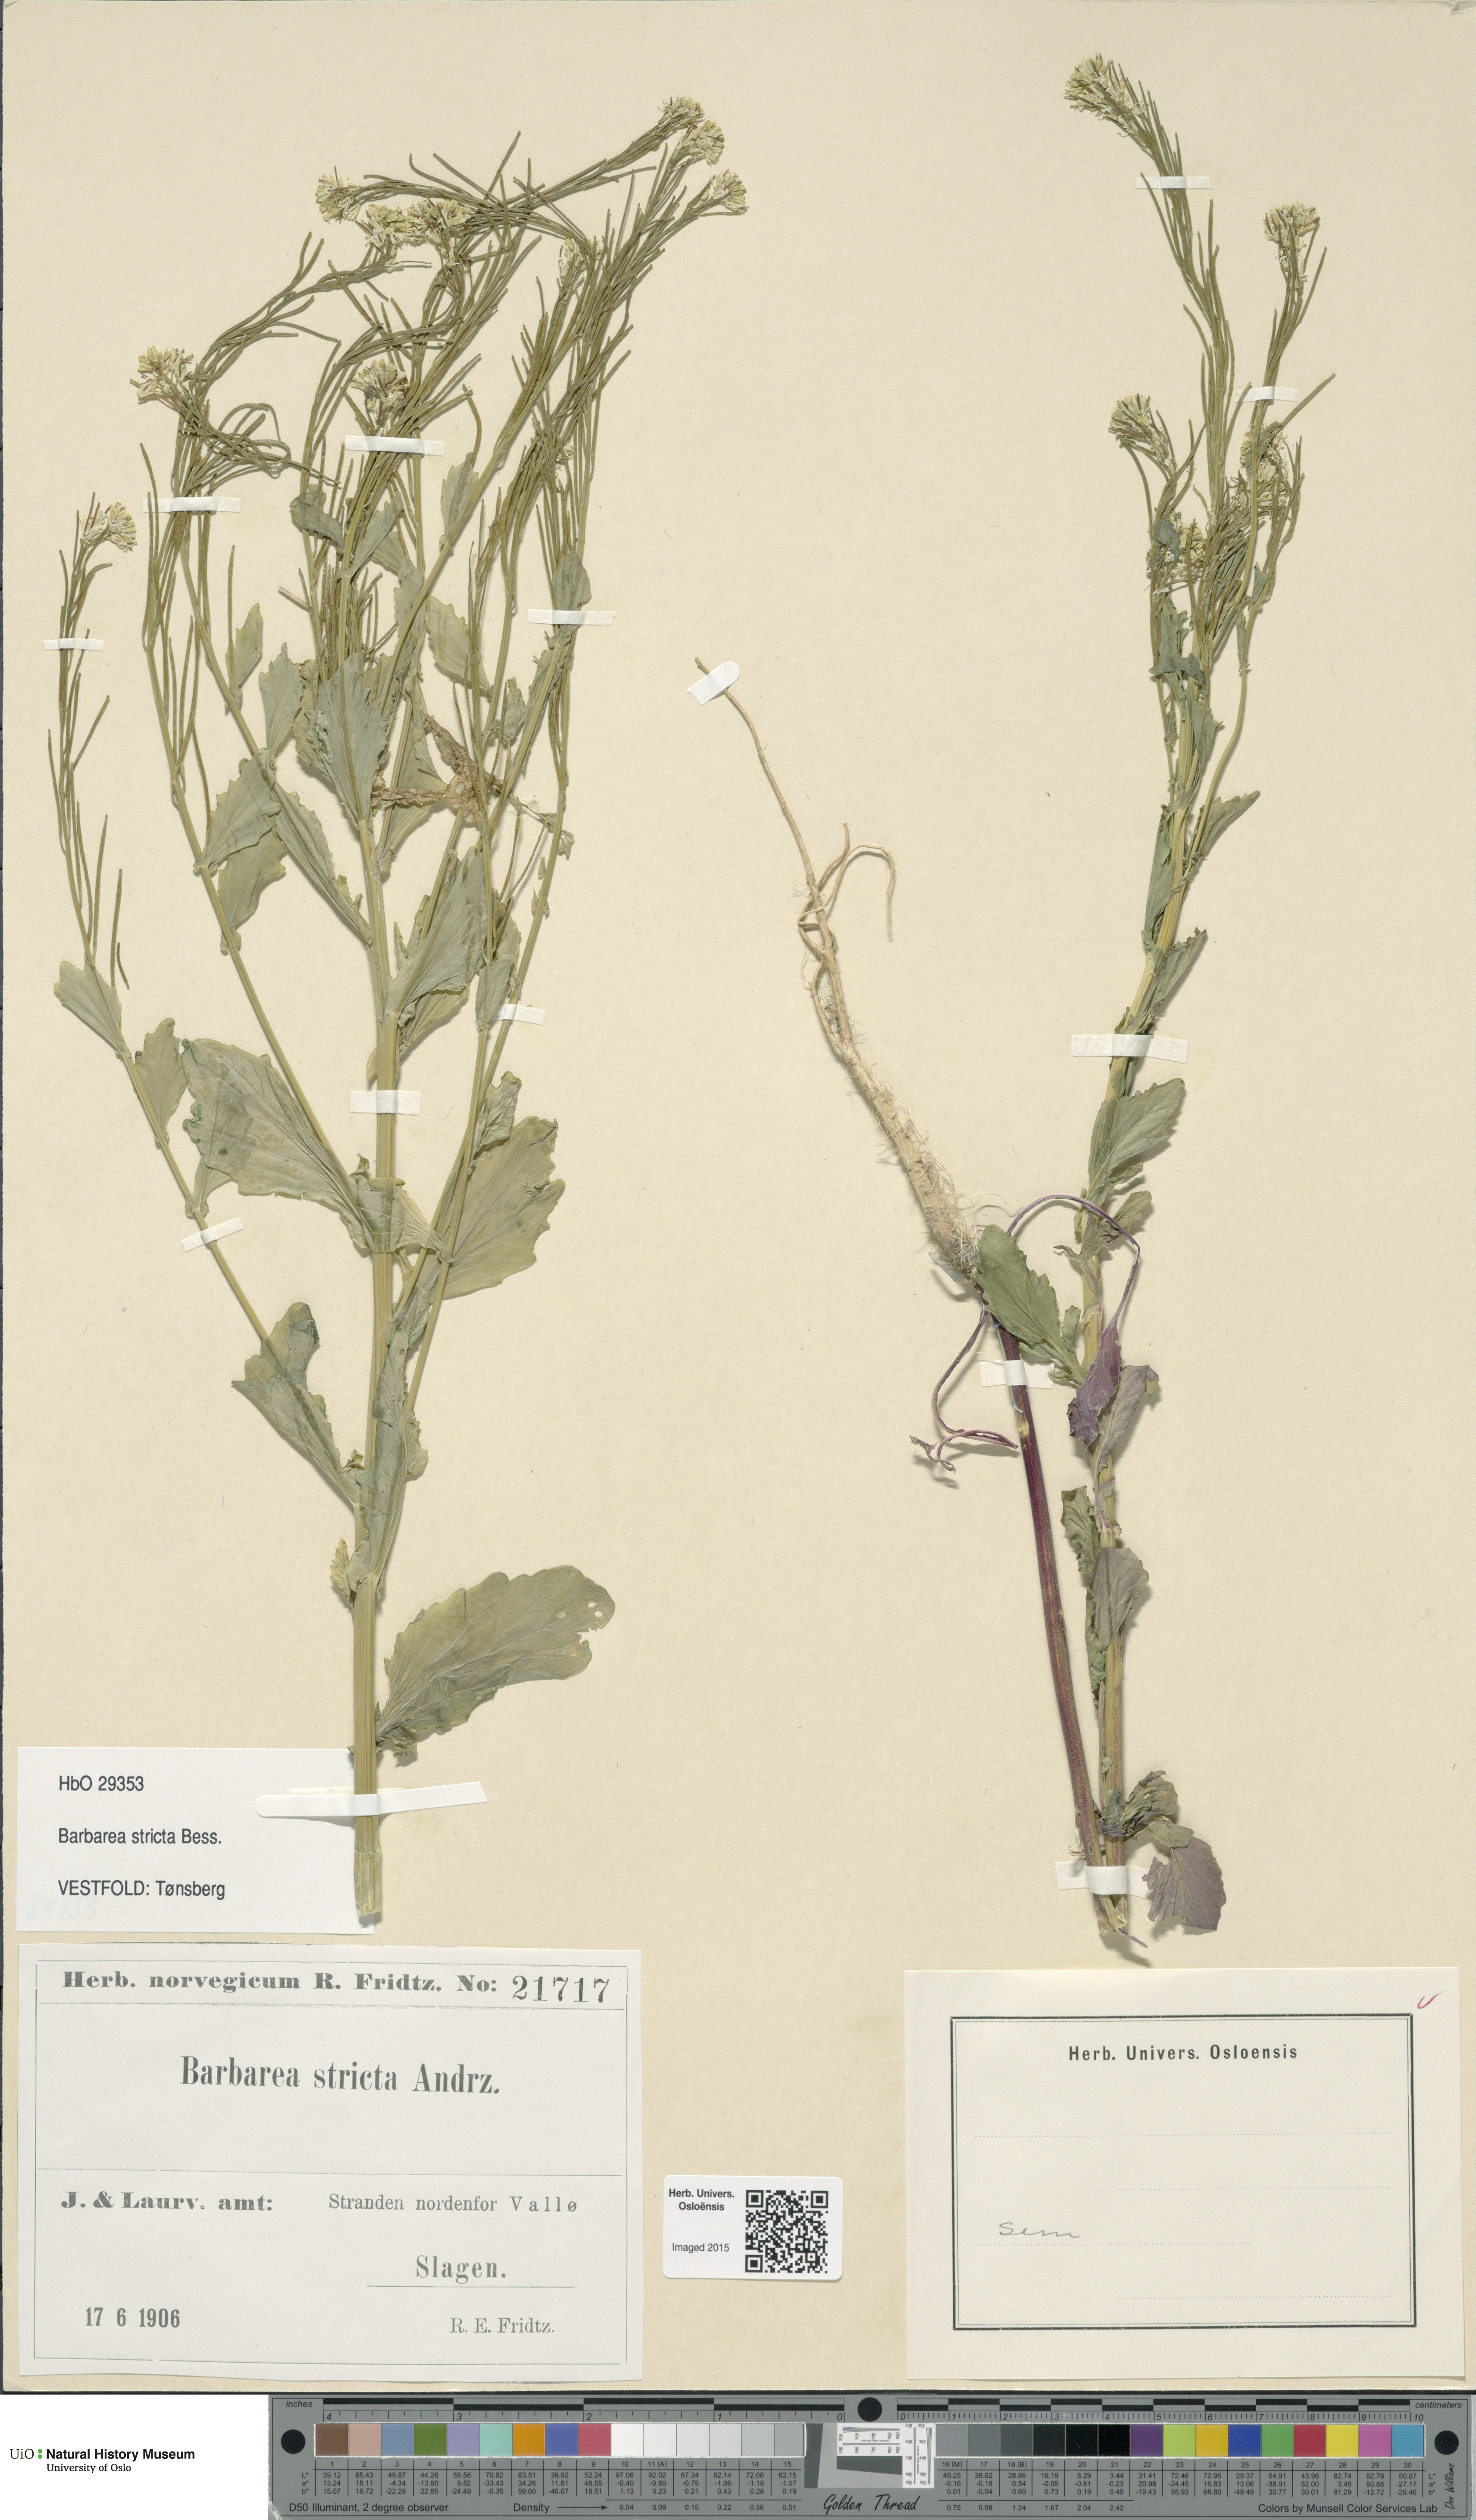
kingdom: Plantae
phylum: Tracheophyta
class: Magnoliopsida
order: Brassicales
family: Brassicaceae
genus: Barbarea
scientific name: Barbarea stricta
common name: Small-flowered winter-cress
